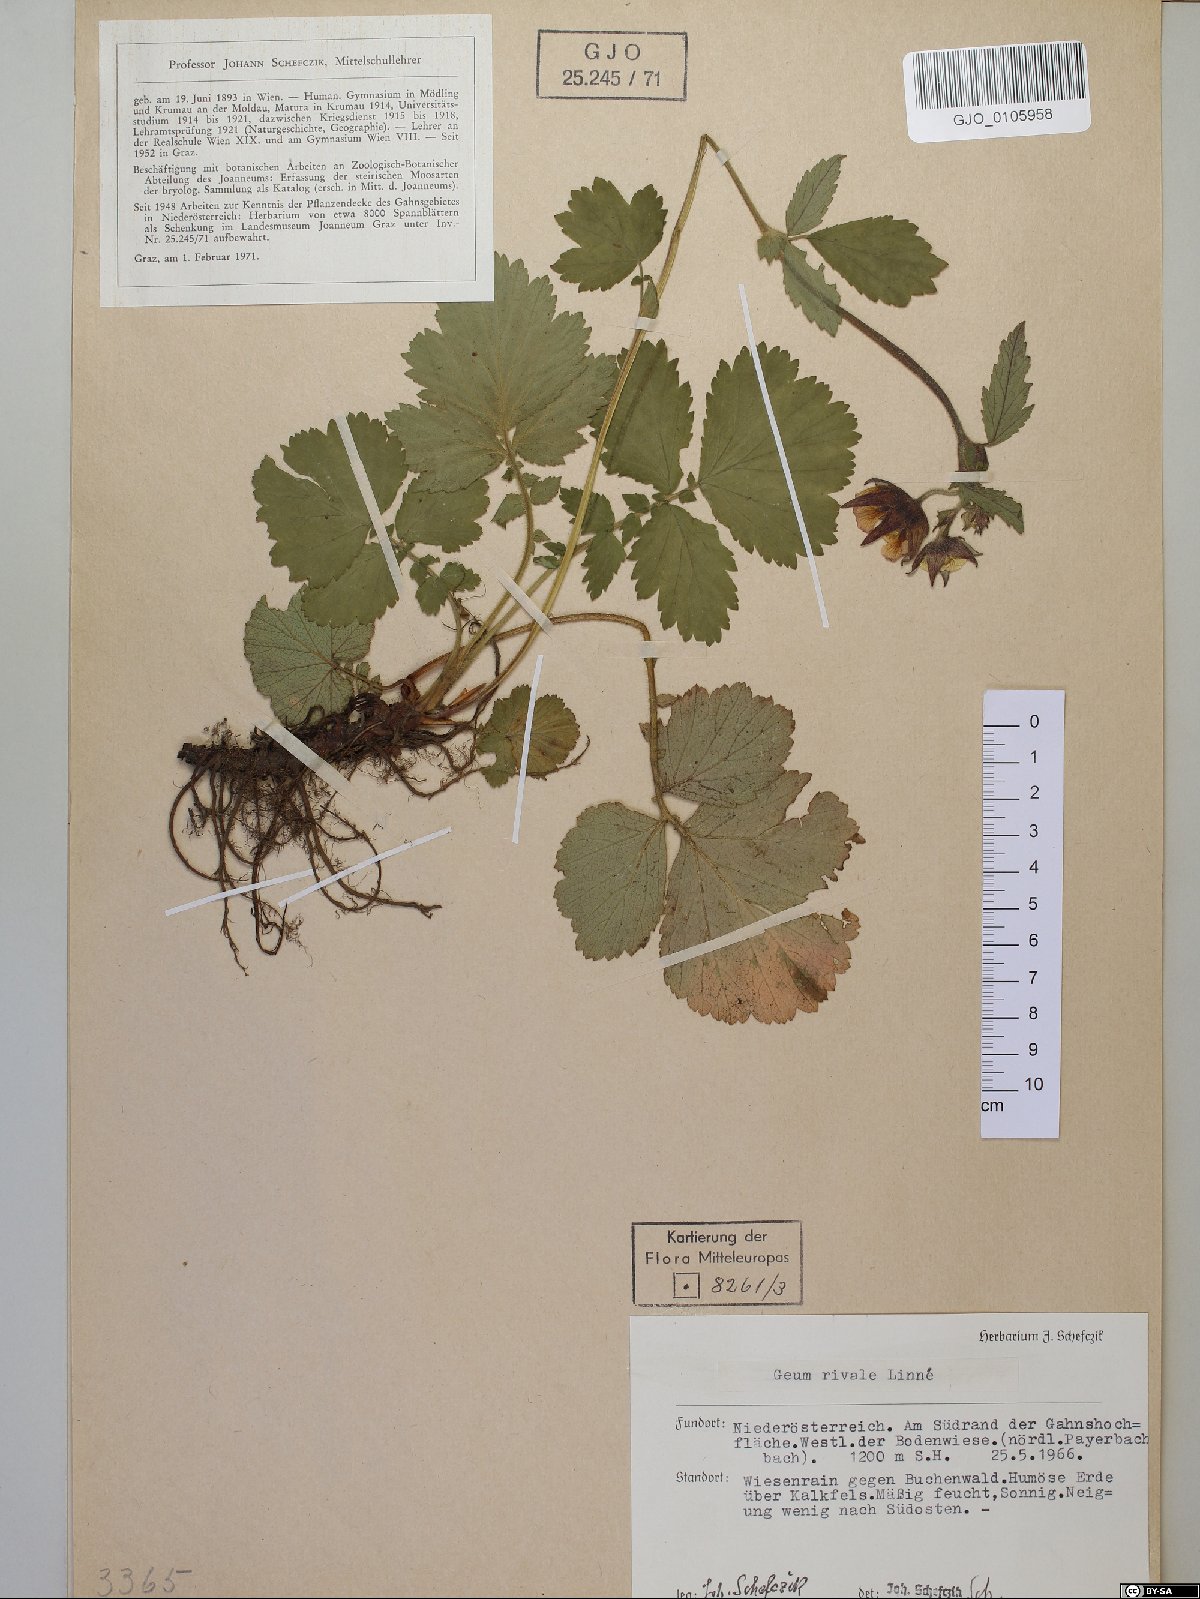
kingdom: Plantae
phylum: Tracheophyta
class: Magnoliopsida
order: Rosales
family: Rosaceae
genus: Geum
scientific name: Geum rivale
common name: Water avens
